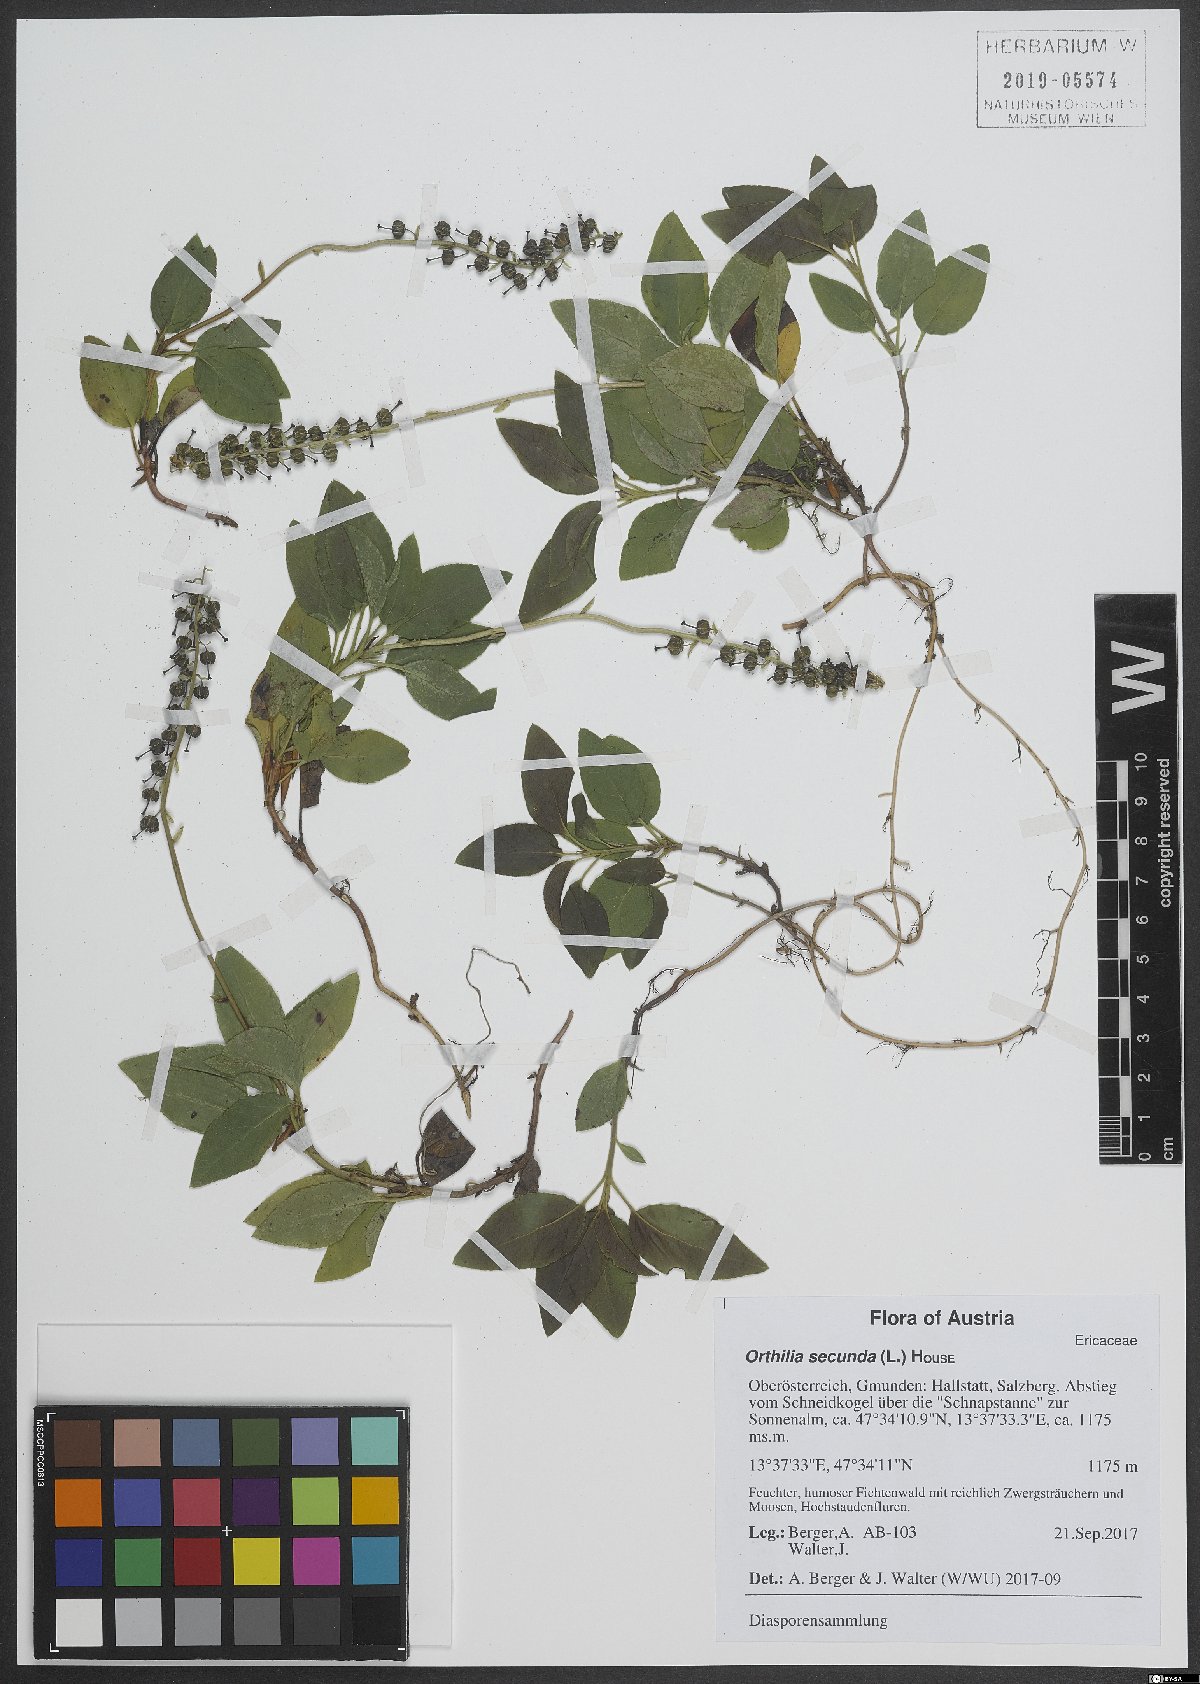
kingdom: Plantae
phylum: Tracheophyta
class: Magnoliopsida
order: Ericales
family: Ericaceae
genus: Orthilia
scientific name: Orthilia secunda
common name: One-sided orthilia
